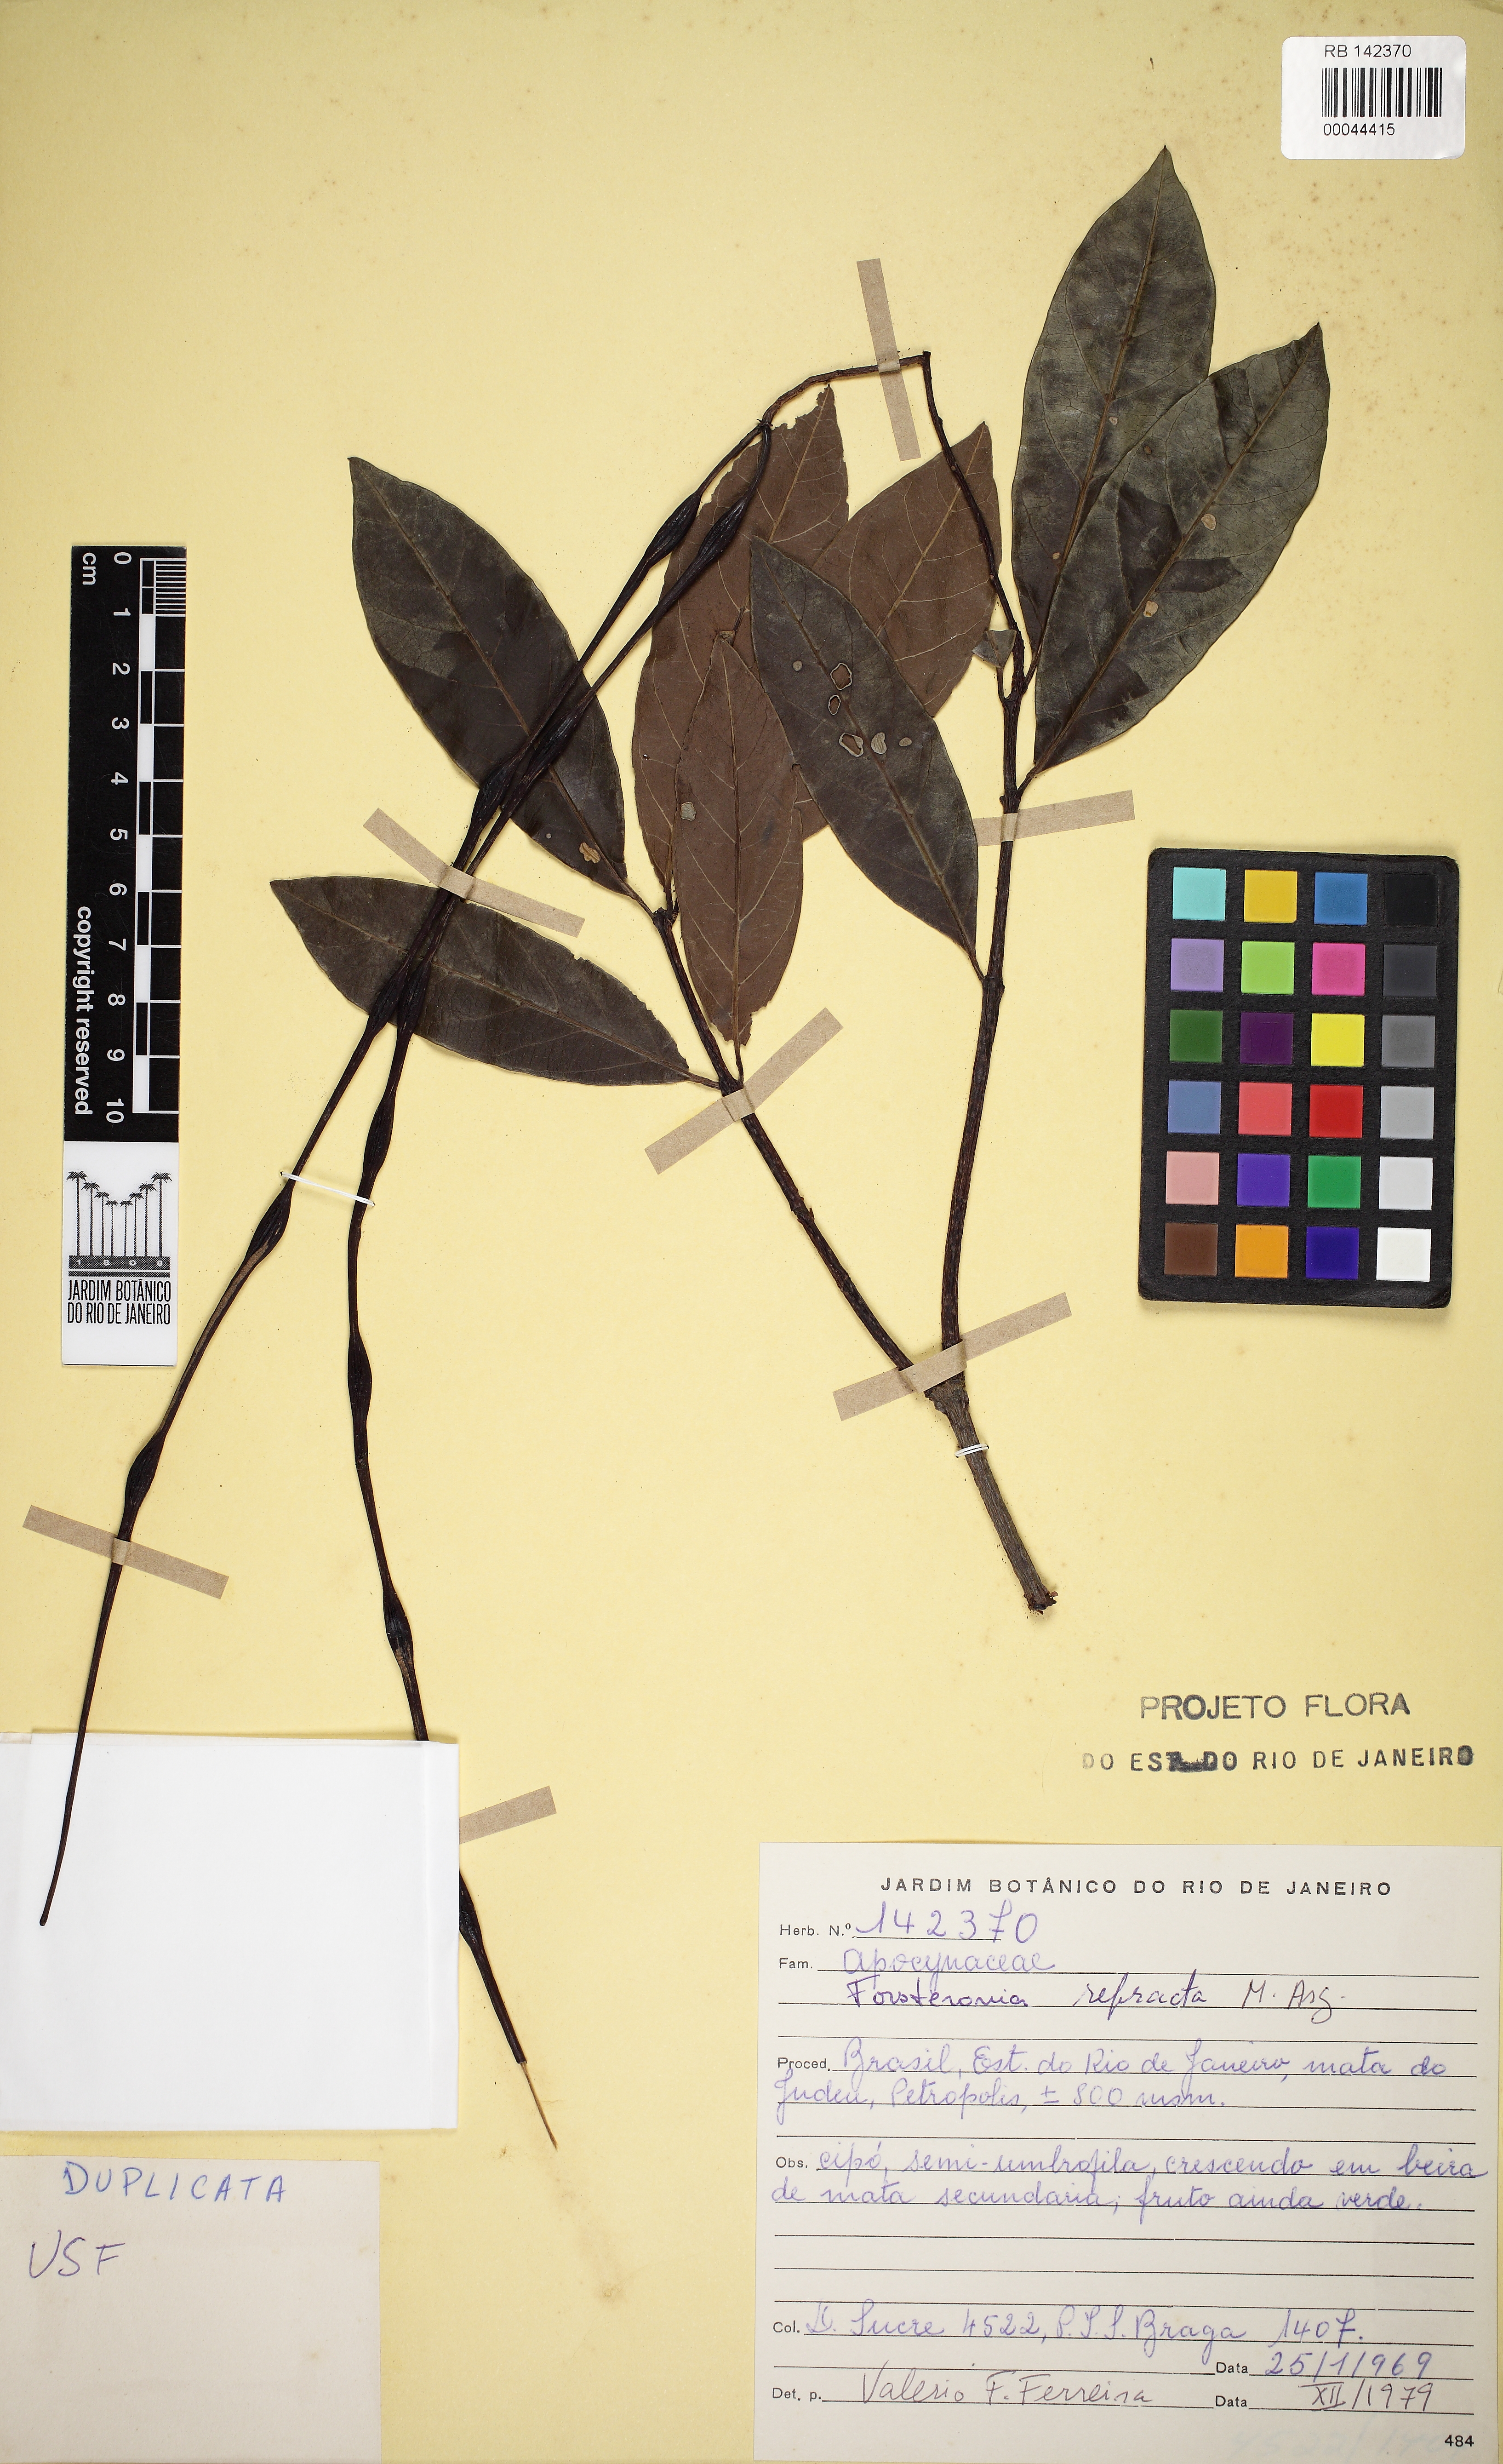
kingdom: Plantae
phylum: Tracheophyta
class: Magnoliopsida
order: Gentianales
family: Apocynaceae
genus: Forsteronia
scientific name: Forsteronia refracta
